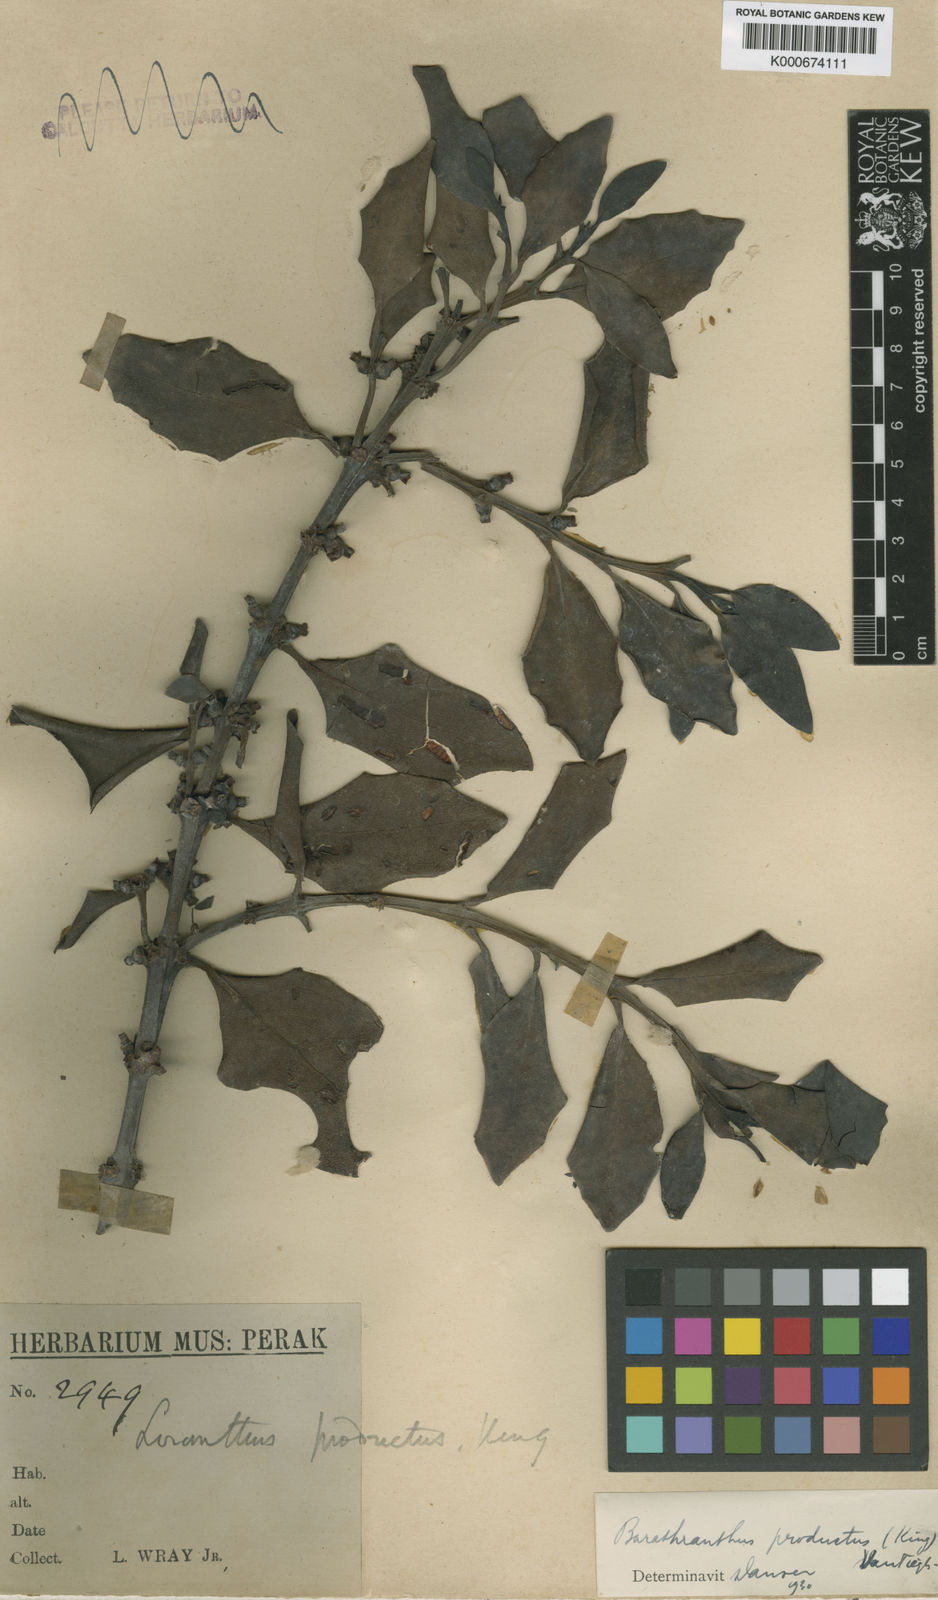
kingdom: Plantae
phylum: Tracheophyta
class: Magnoliopsida
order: Santalales
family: Loranthaceae
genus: Barathranthus
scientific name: Barathranthus
